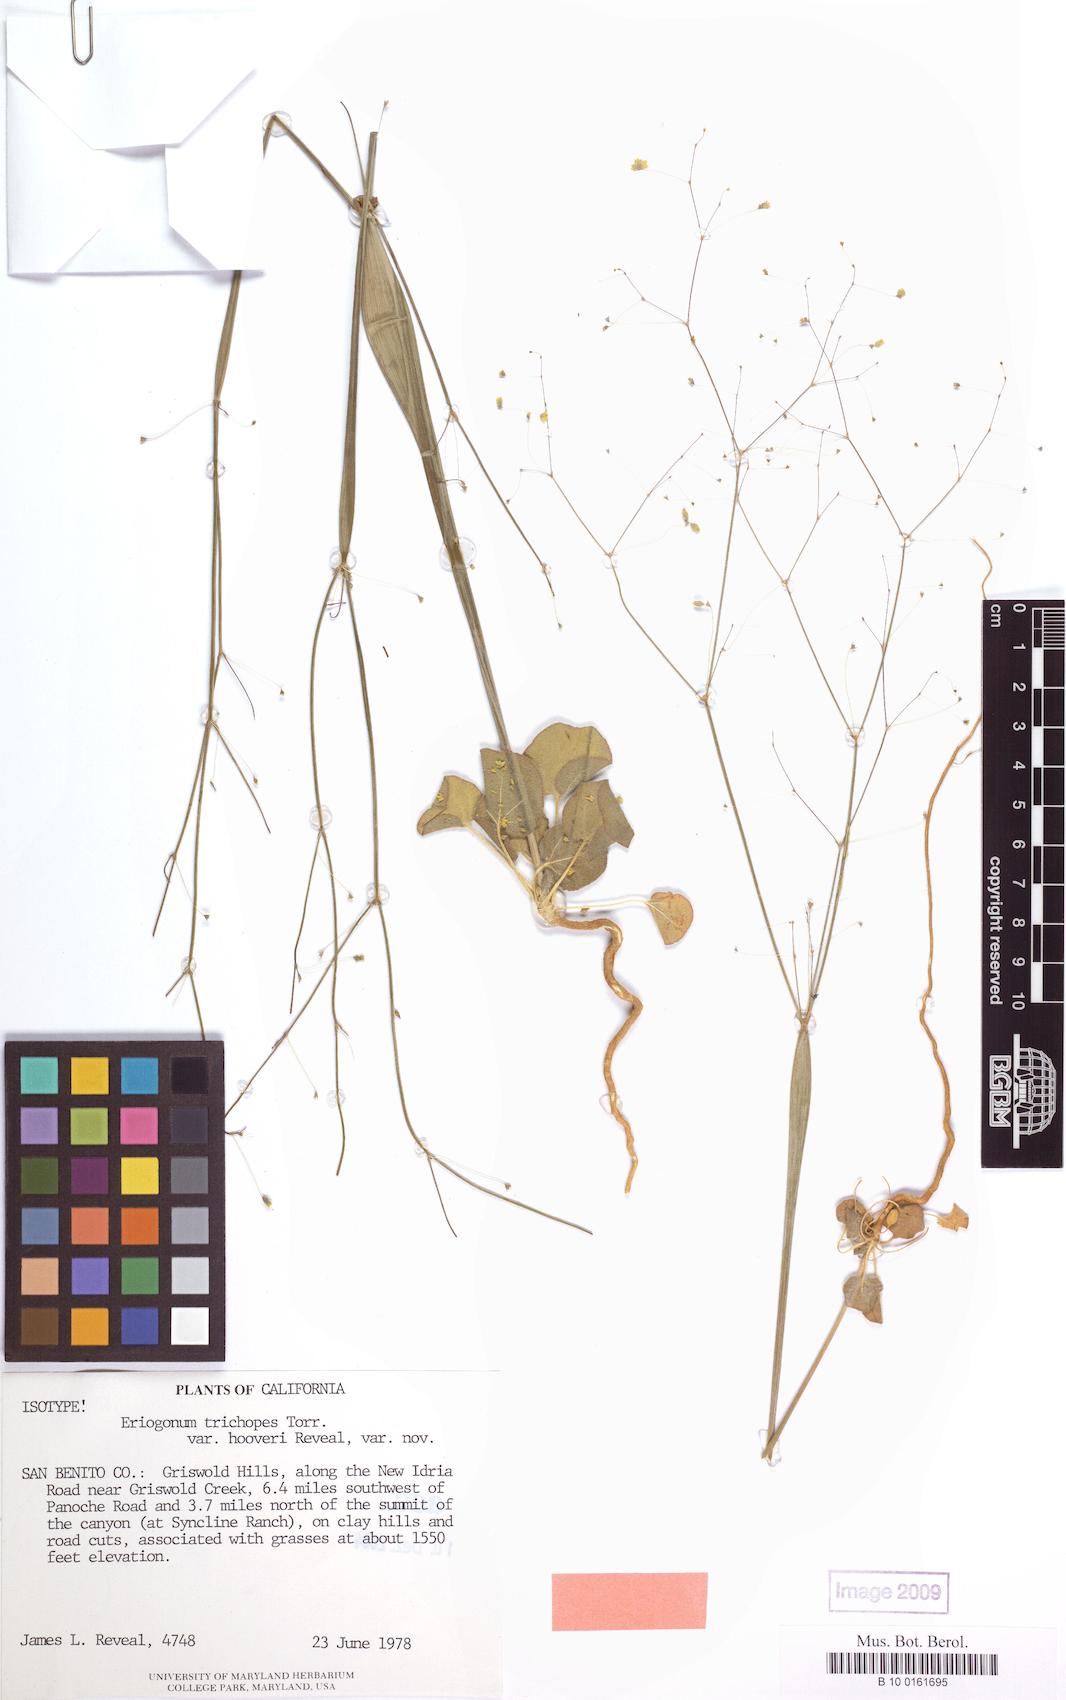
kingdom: Plantae
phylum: Tracheophyta
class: Magnoliopsida
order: Caryophyllales
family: Polygonaceae
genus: Eriogonum
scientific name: Eriogonum clavatum
